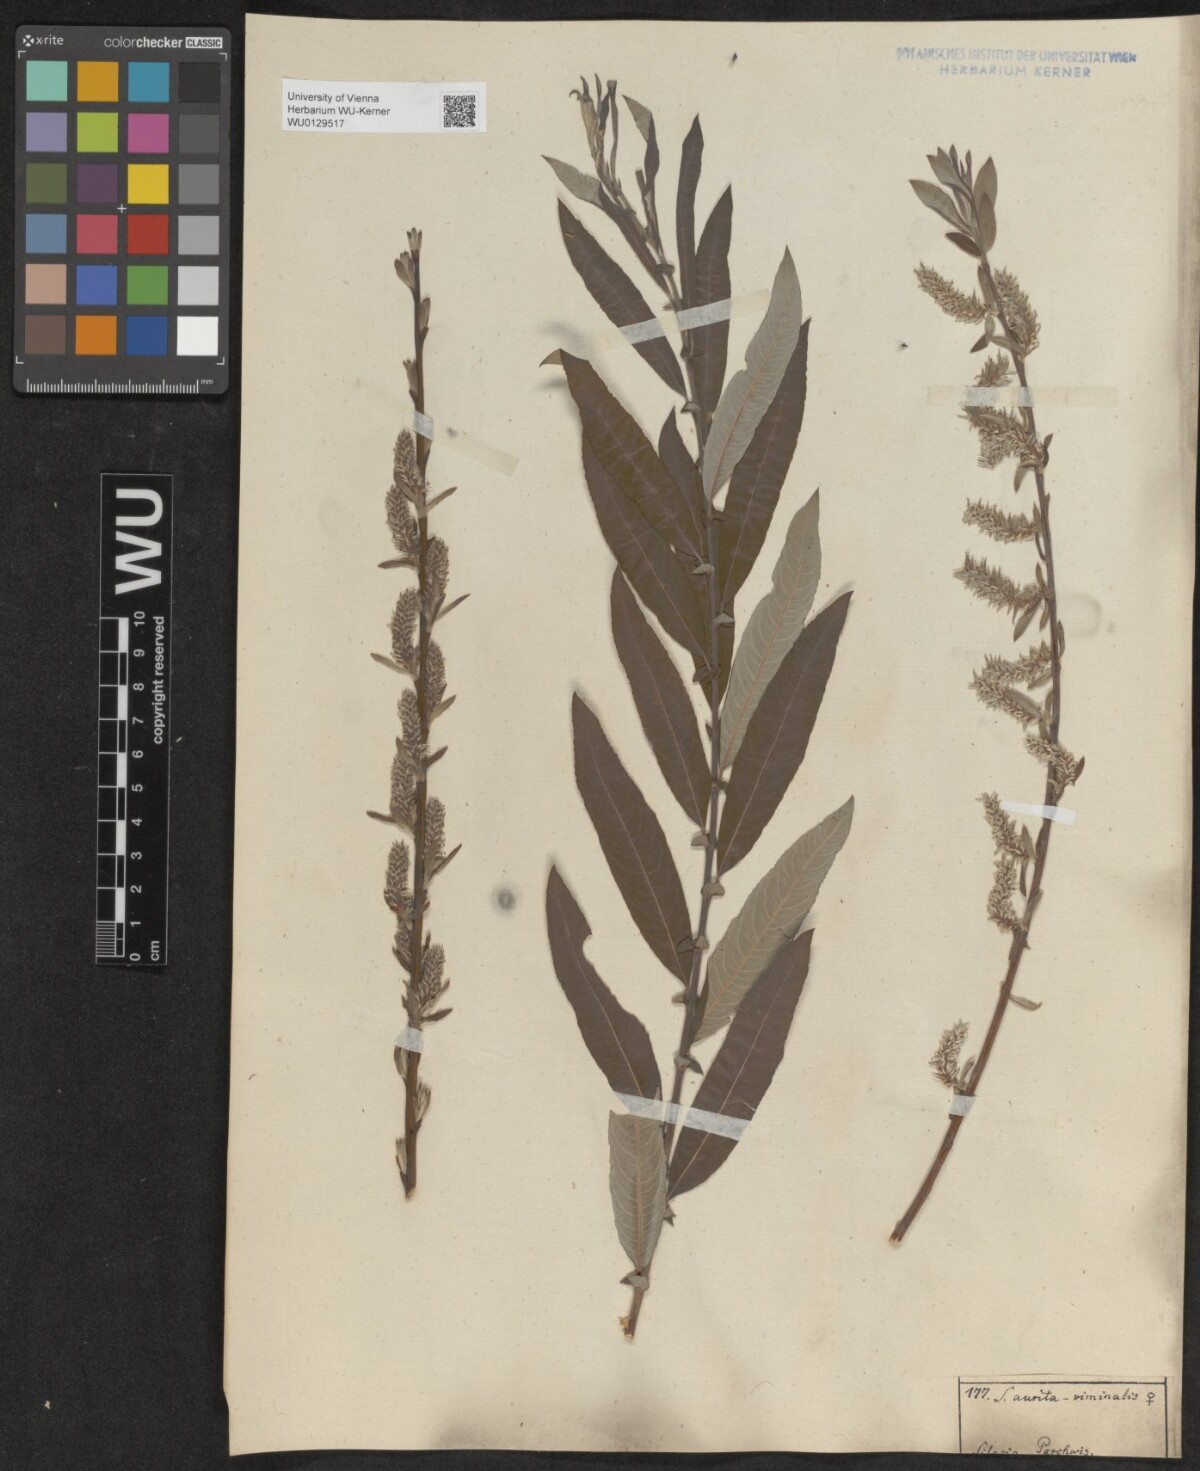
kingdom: Plantae
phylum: Tracheophyta
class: Magnoliopsida
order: Malpighiales
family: Salicaceae
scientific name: Salicaceae
